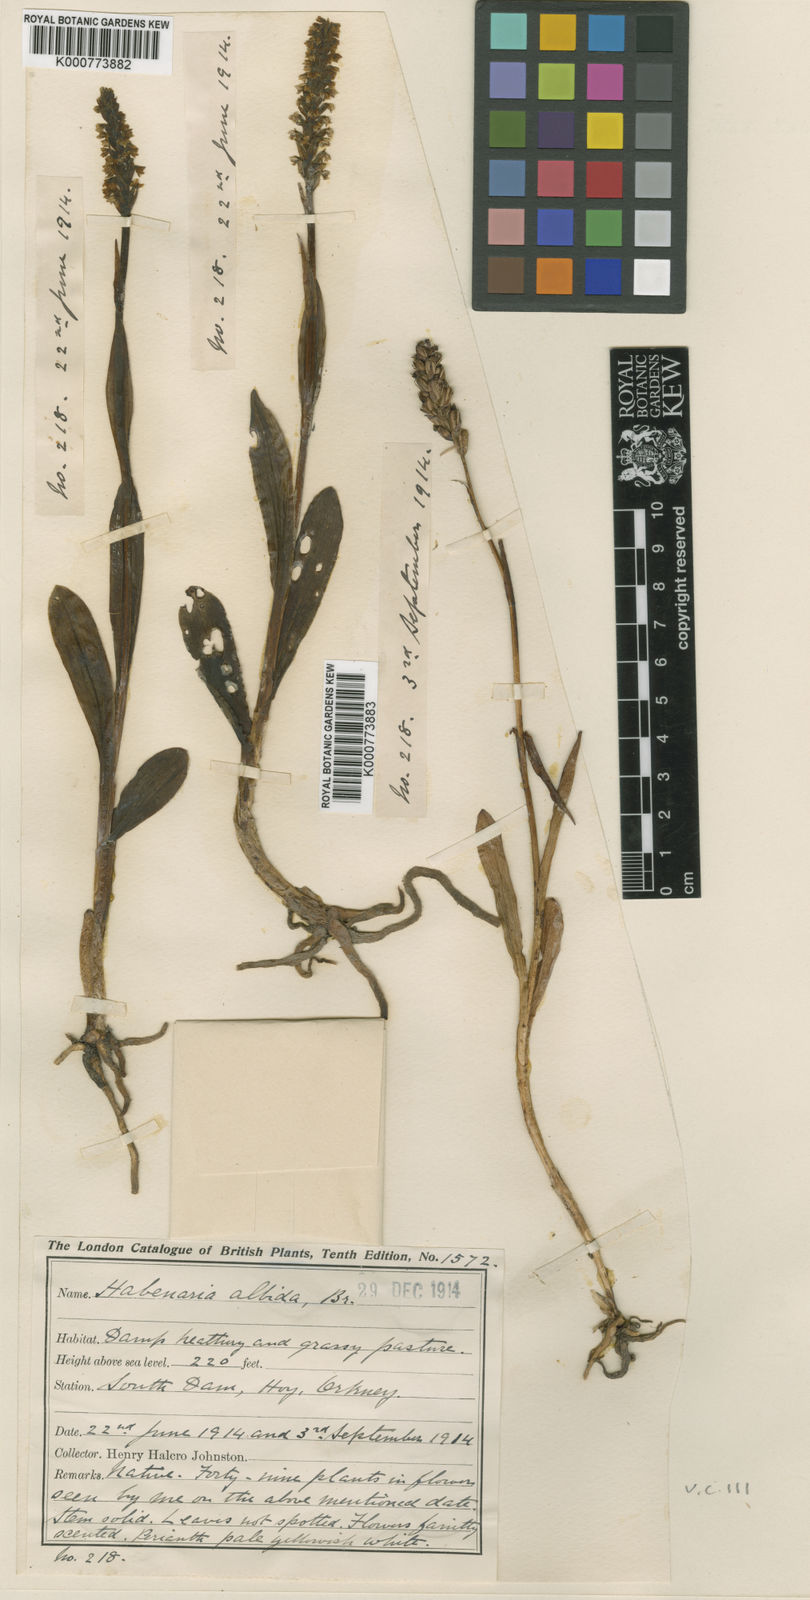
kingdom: Plantae
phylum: Tracheophyta
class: Liliopsida
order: Asparagales
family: Orchidaceae
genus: Pseudorchis
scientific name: Pseudorchis
